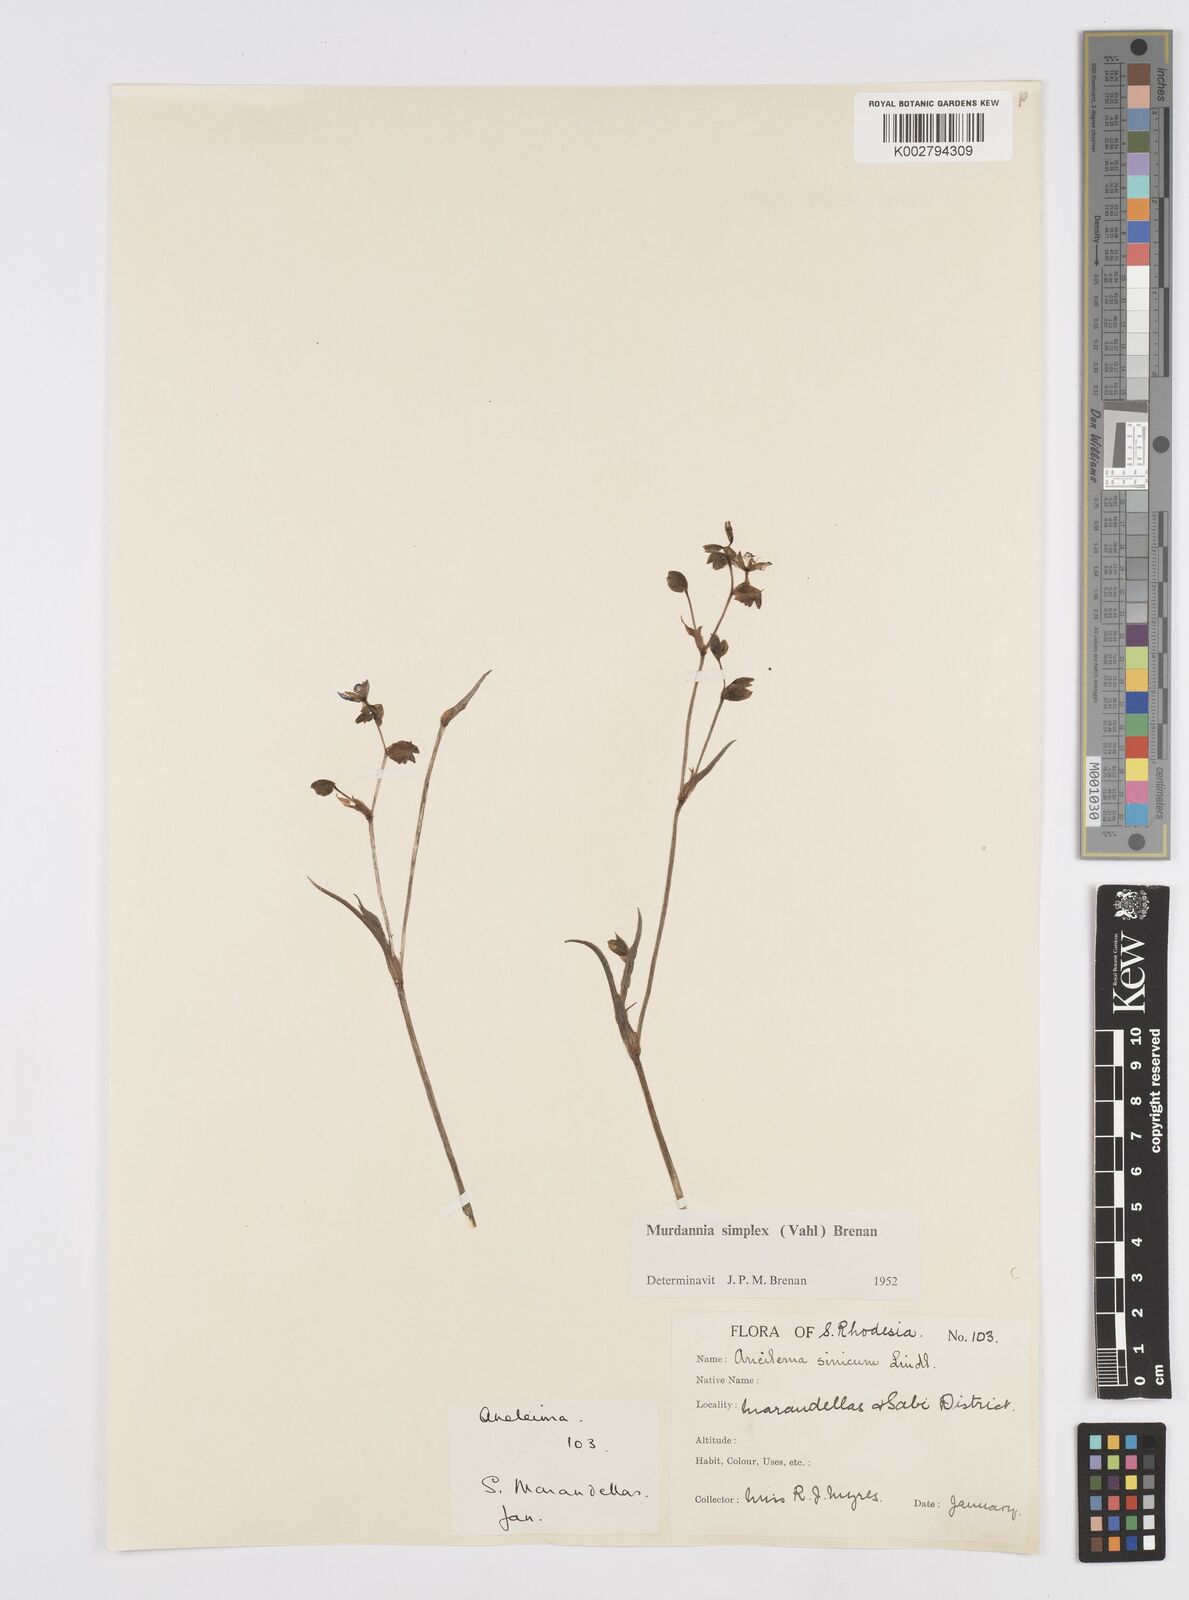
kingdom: Plantae
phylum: Tracheophyta
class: Liliopsida
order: Commelinales
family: Commelinaceae
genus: Murdannia
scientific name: Murdannia simplex
